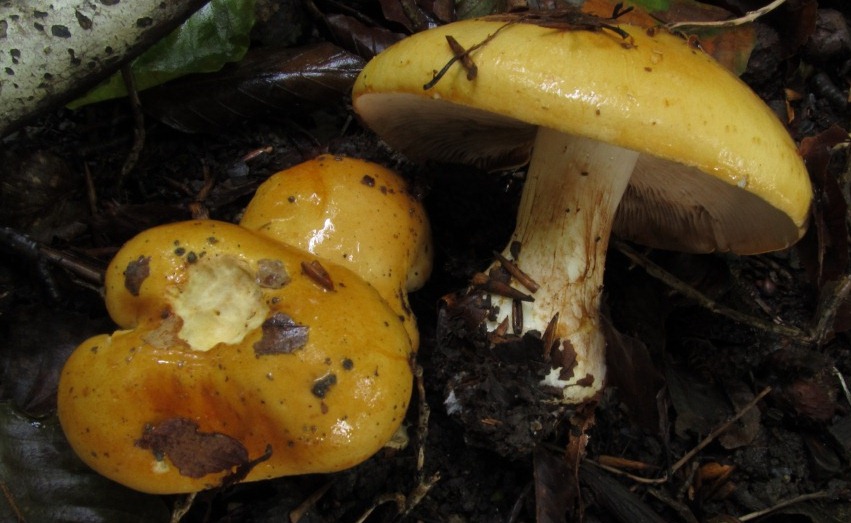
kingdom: Fungi
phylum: Basidiomycota
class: Agaricomycetes
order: Agaricales
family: Cortinariaceae
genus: Phlegmacium
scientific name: Phlegmacium rhizophorum
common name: finkornet slørhat
